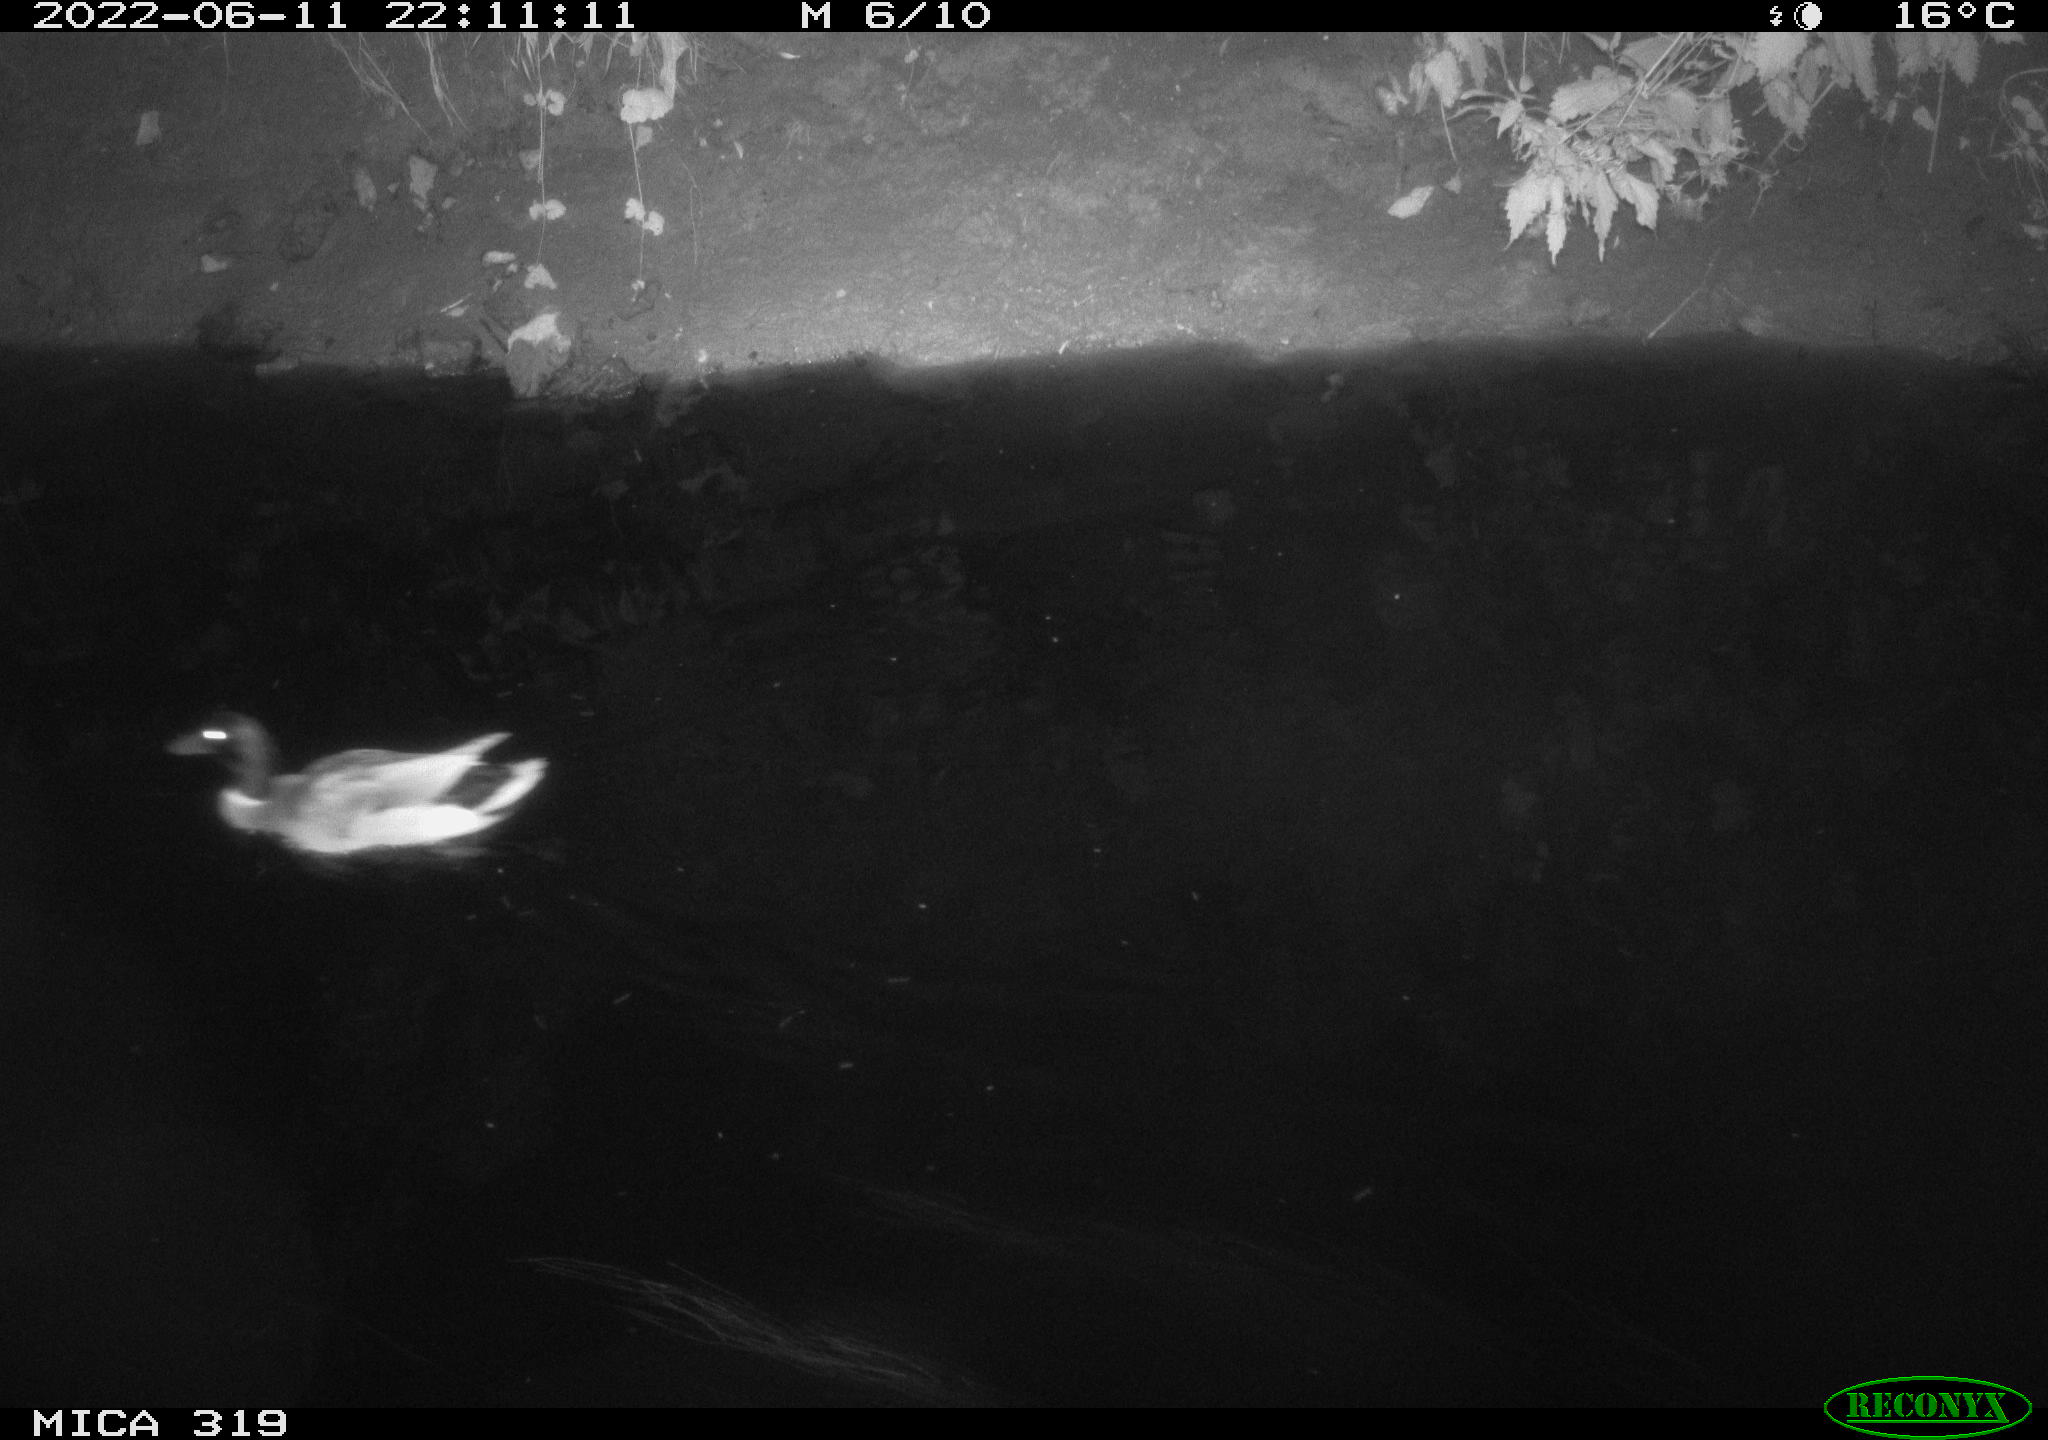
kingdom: Animalia
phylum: Chordata
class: Aves
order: Anseriformes
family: Anatidae
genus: Anas
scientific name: Anas
